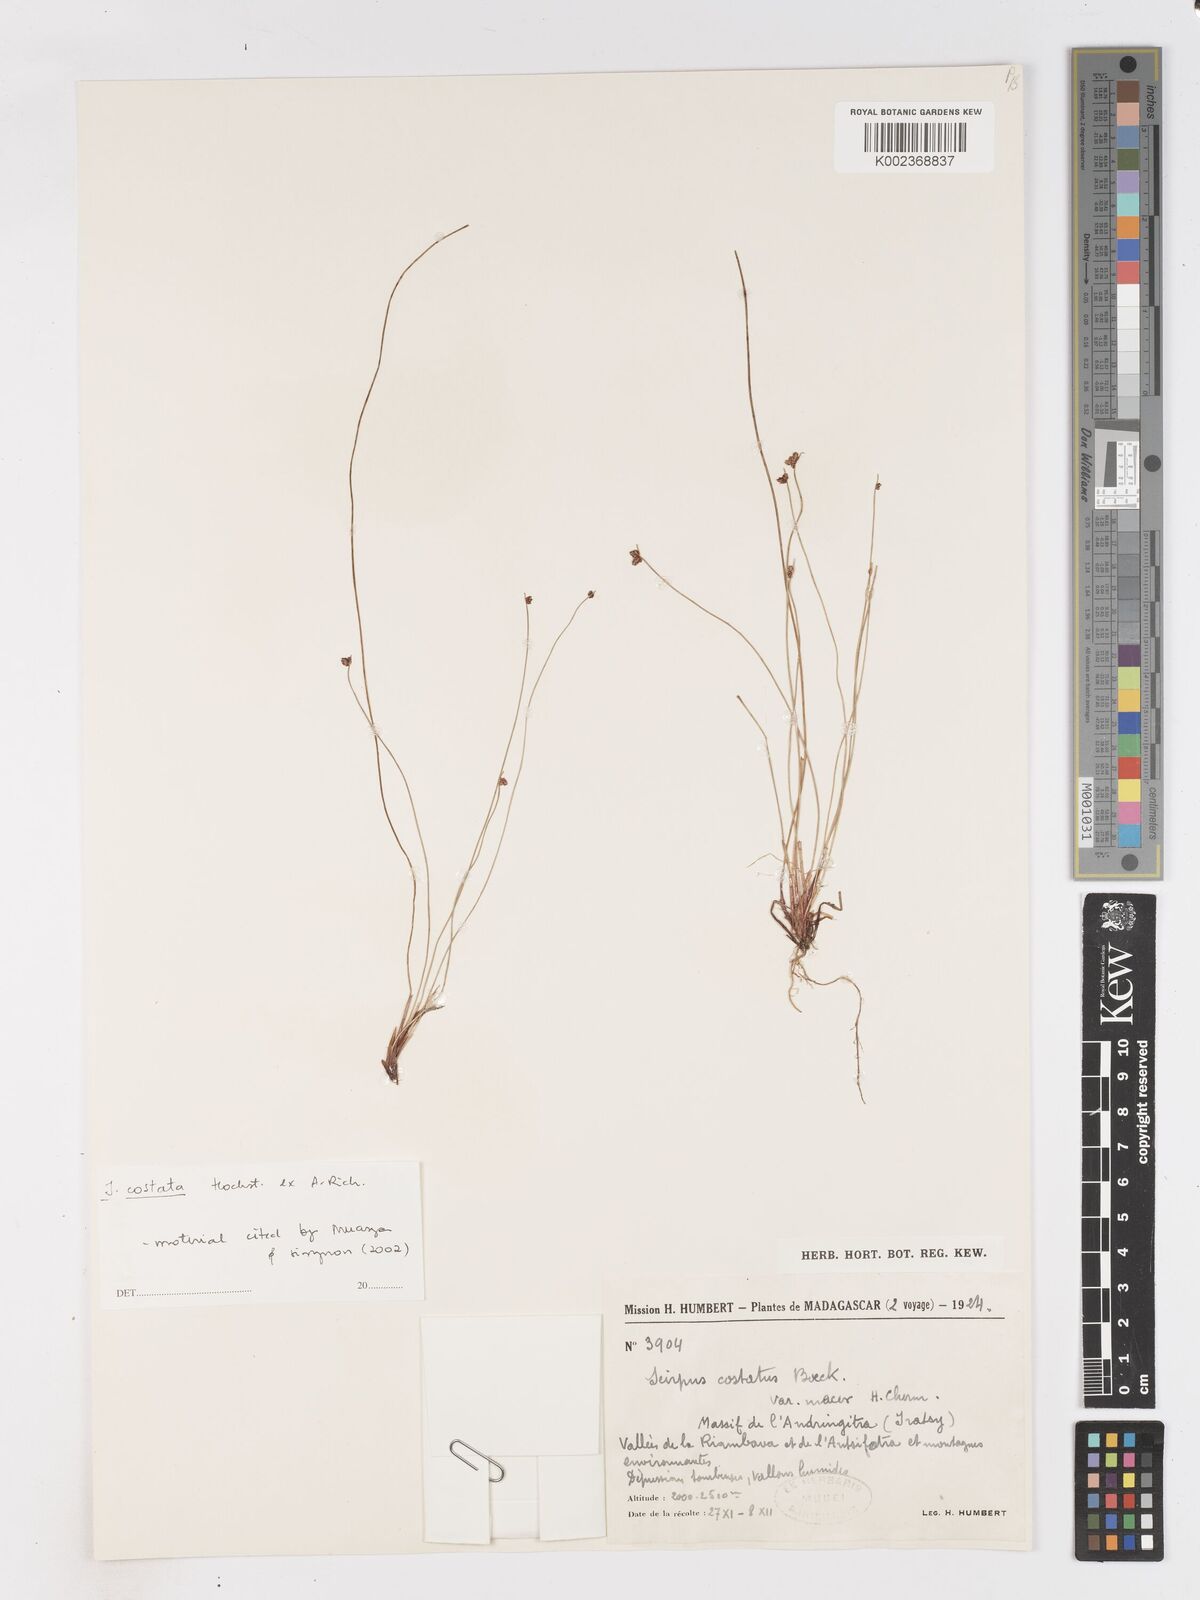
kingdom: Plantae
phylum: Tracheophyta
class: Liliopsida
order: Poales
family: Cyperaceae
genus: Isolepis
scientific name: Isolepis costata
